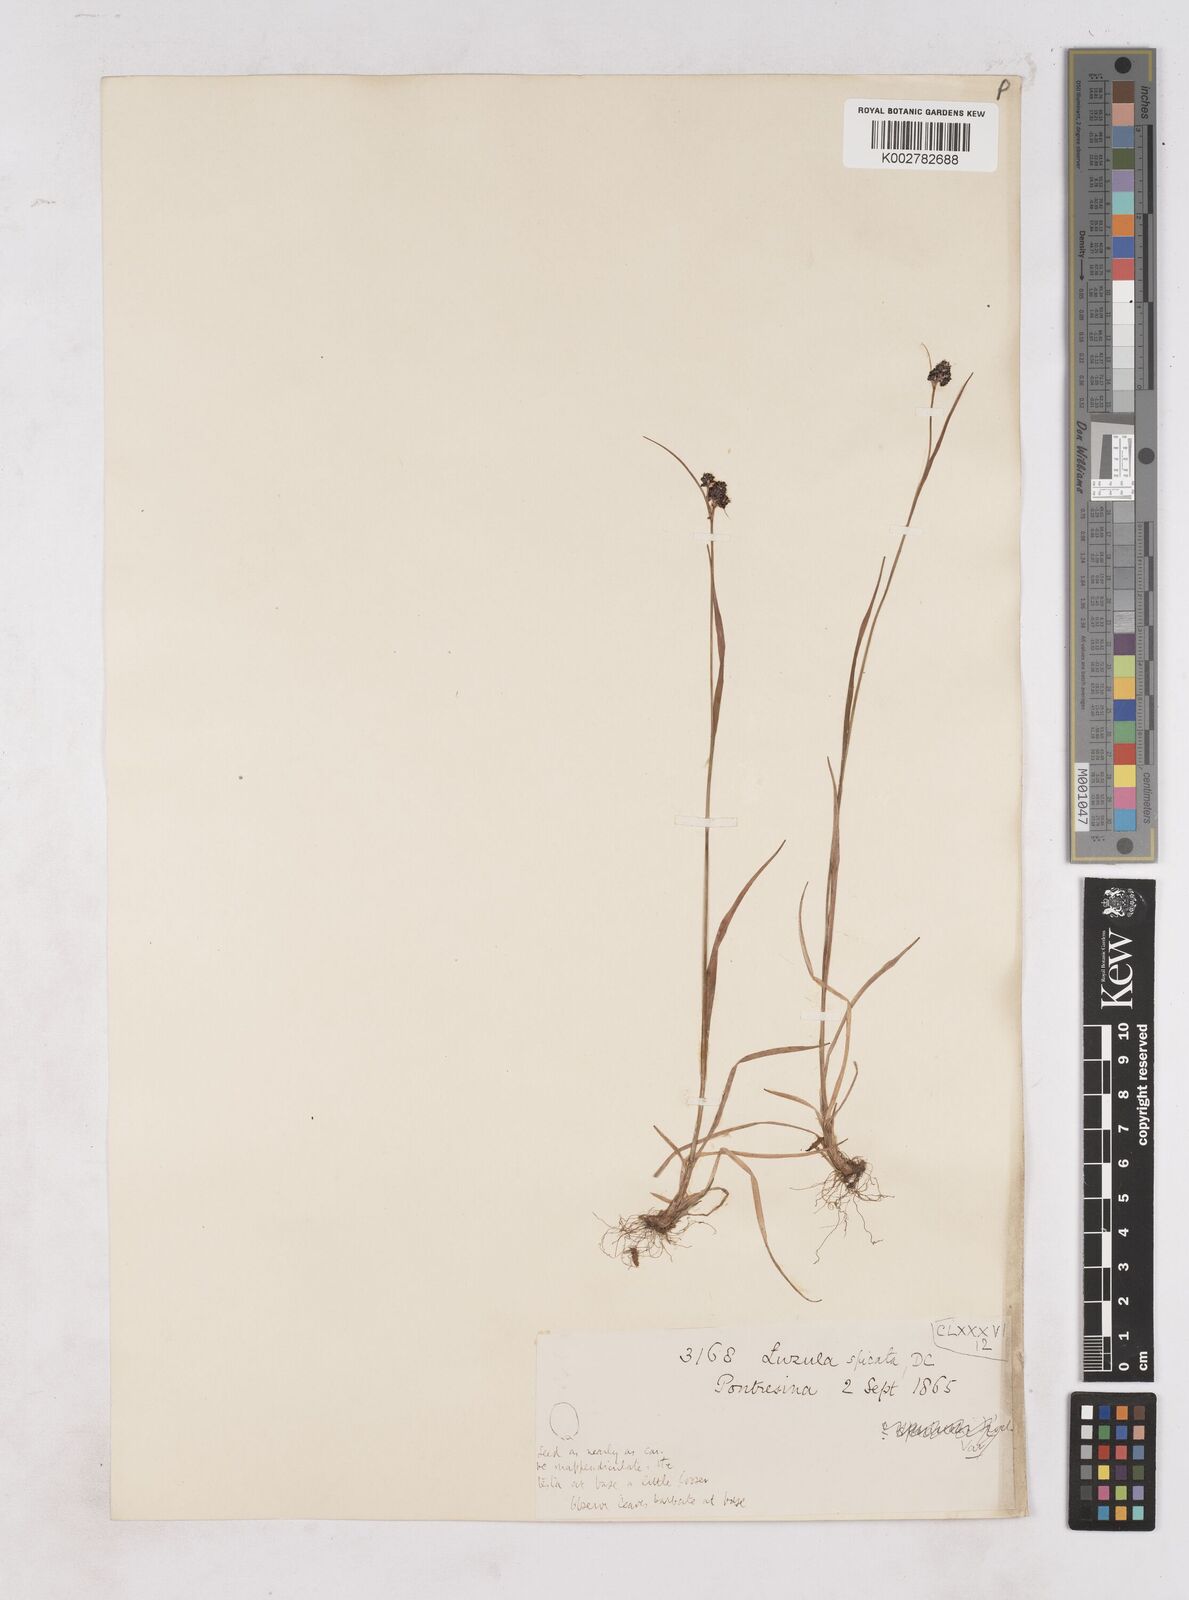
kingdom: Plantae
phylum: Tracheophyta
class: Liliopsida
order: Poales
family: Juncaceae
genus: Luzula
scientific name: Luzula spicata
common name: Spiked wood-rush
